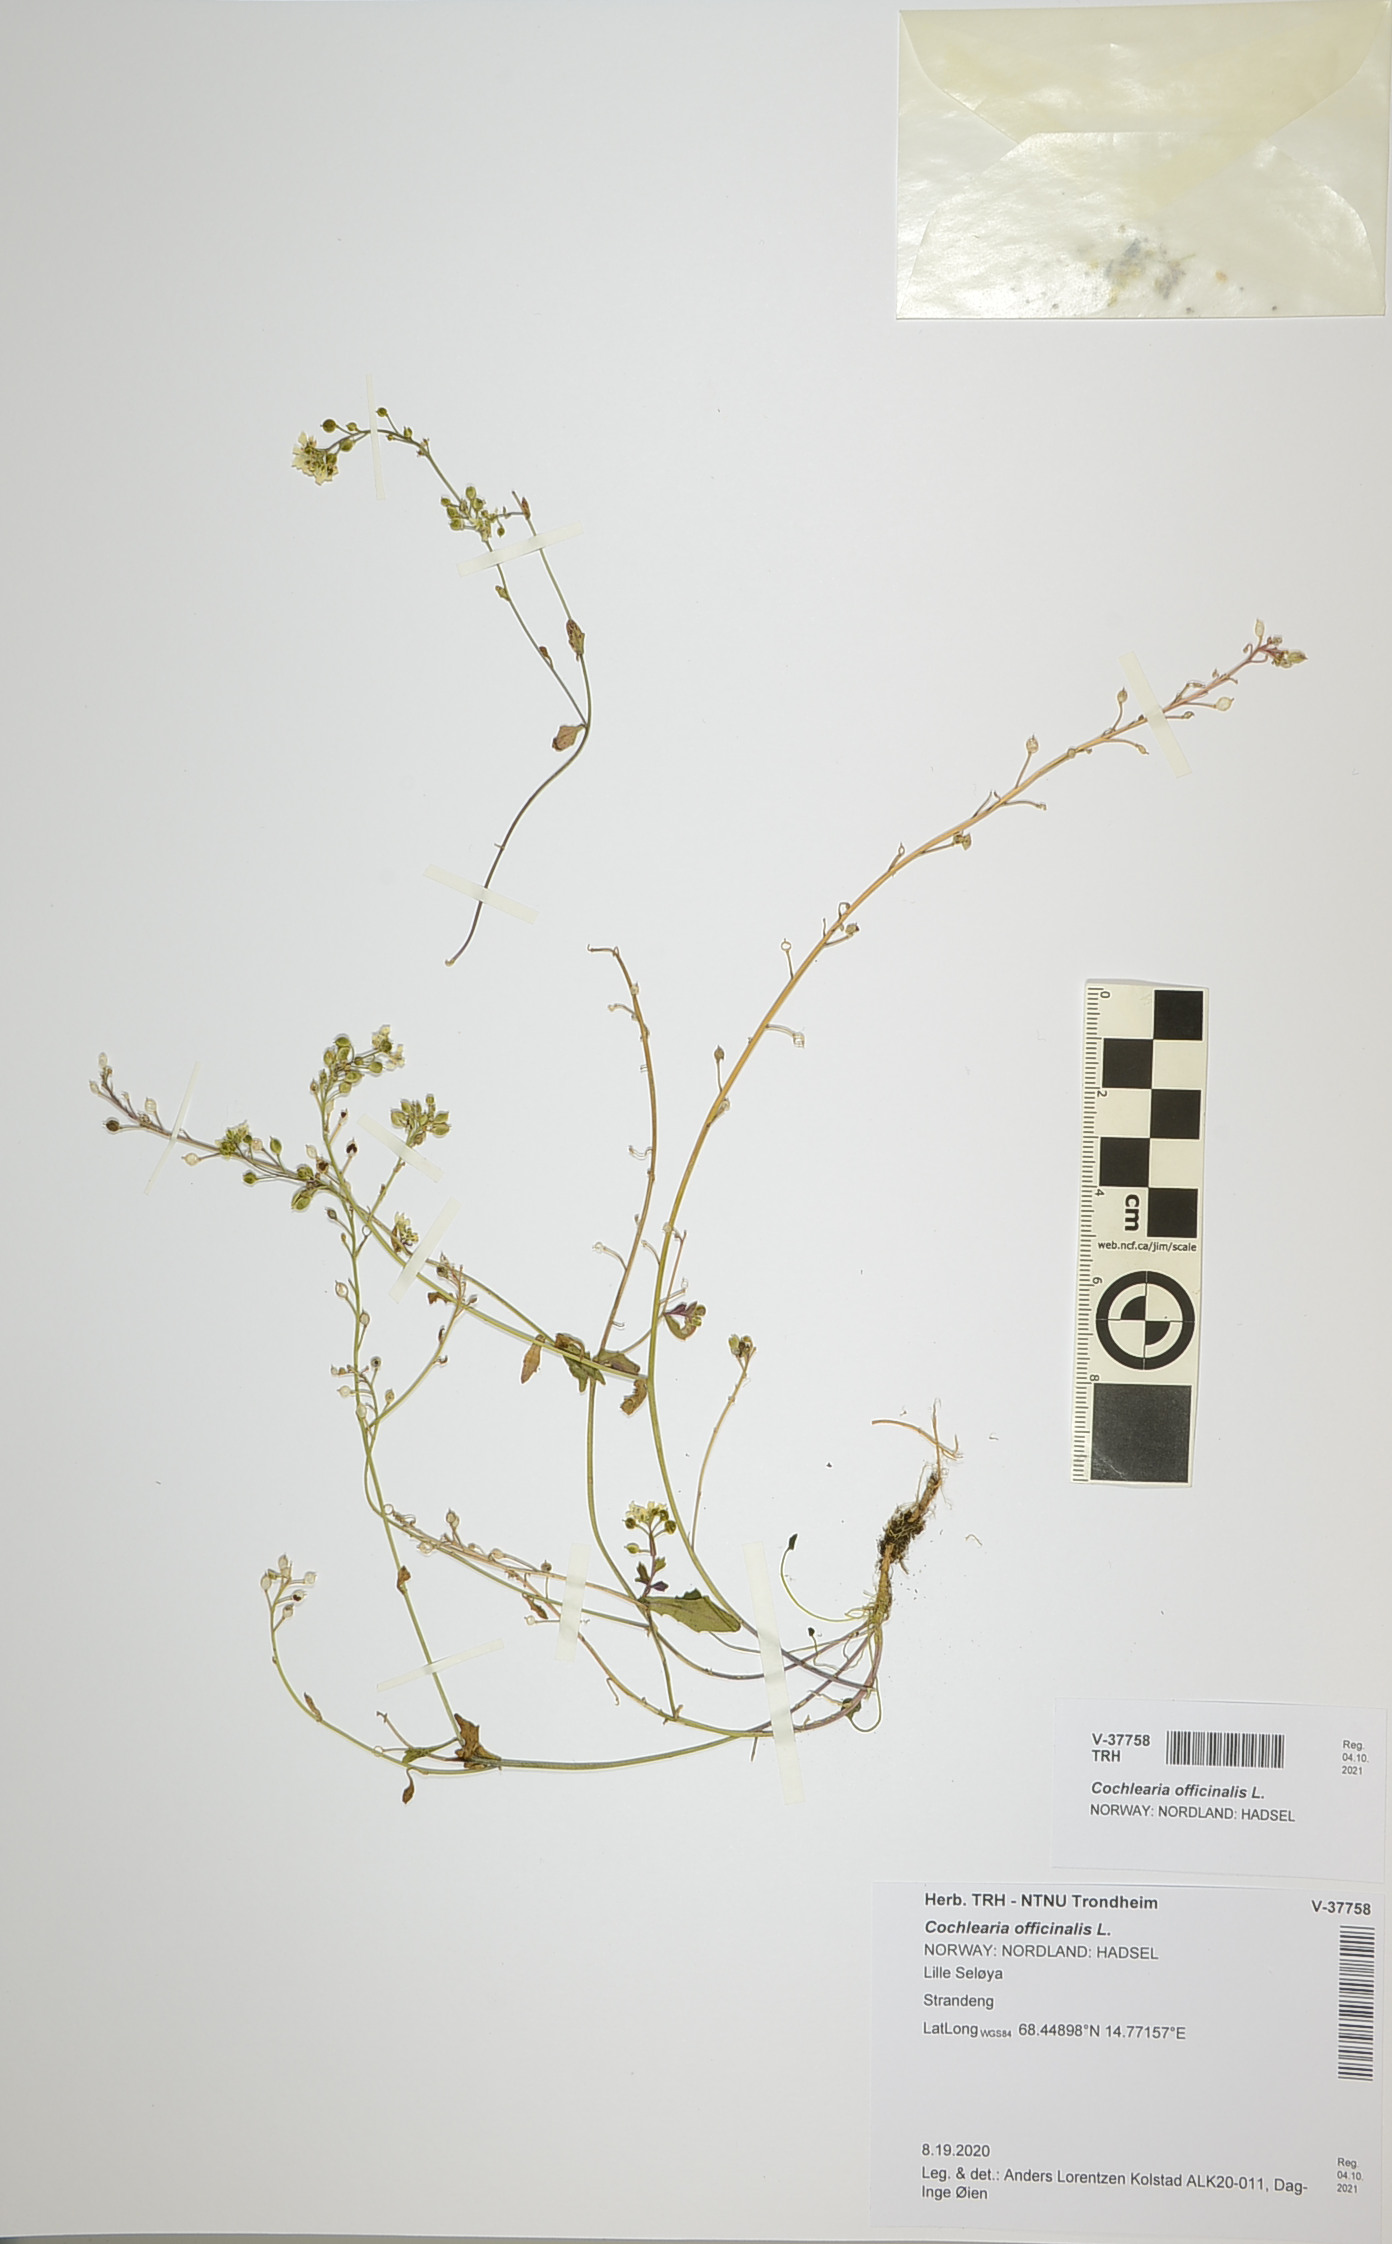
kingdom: Plantae
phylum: Tracheophyta
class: Magnoliopsida
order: Brassicales
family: Brassicaceae
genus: Cochlearia
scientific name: Cochlearia officinalis
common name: Scurvy-grass
